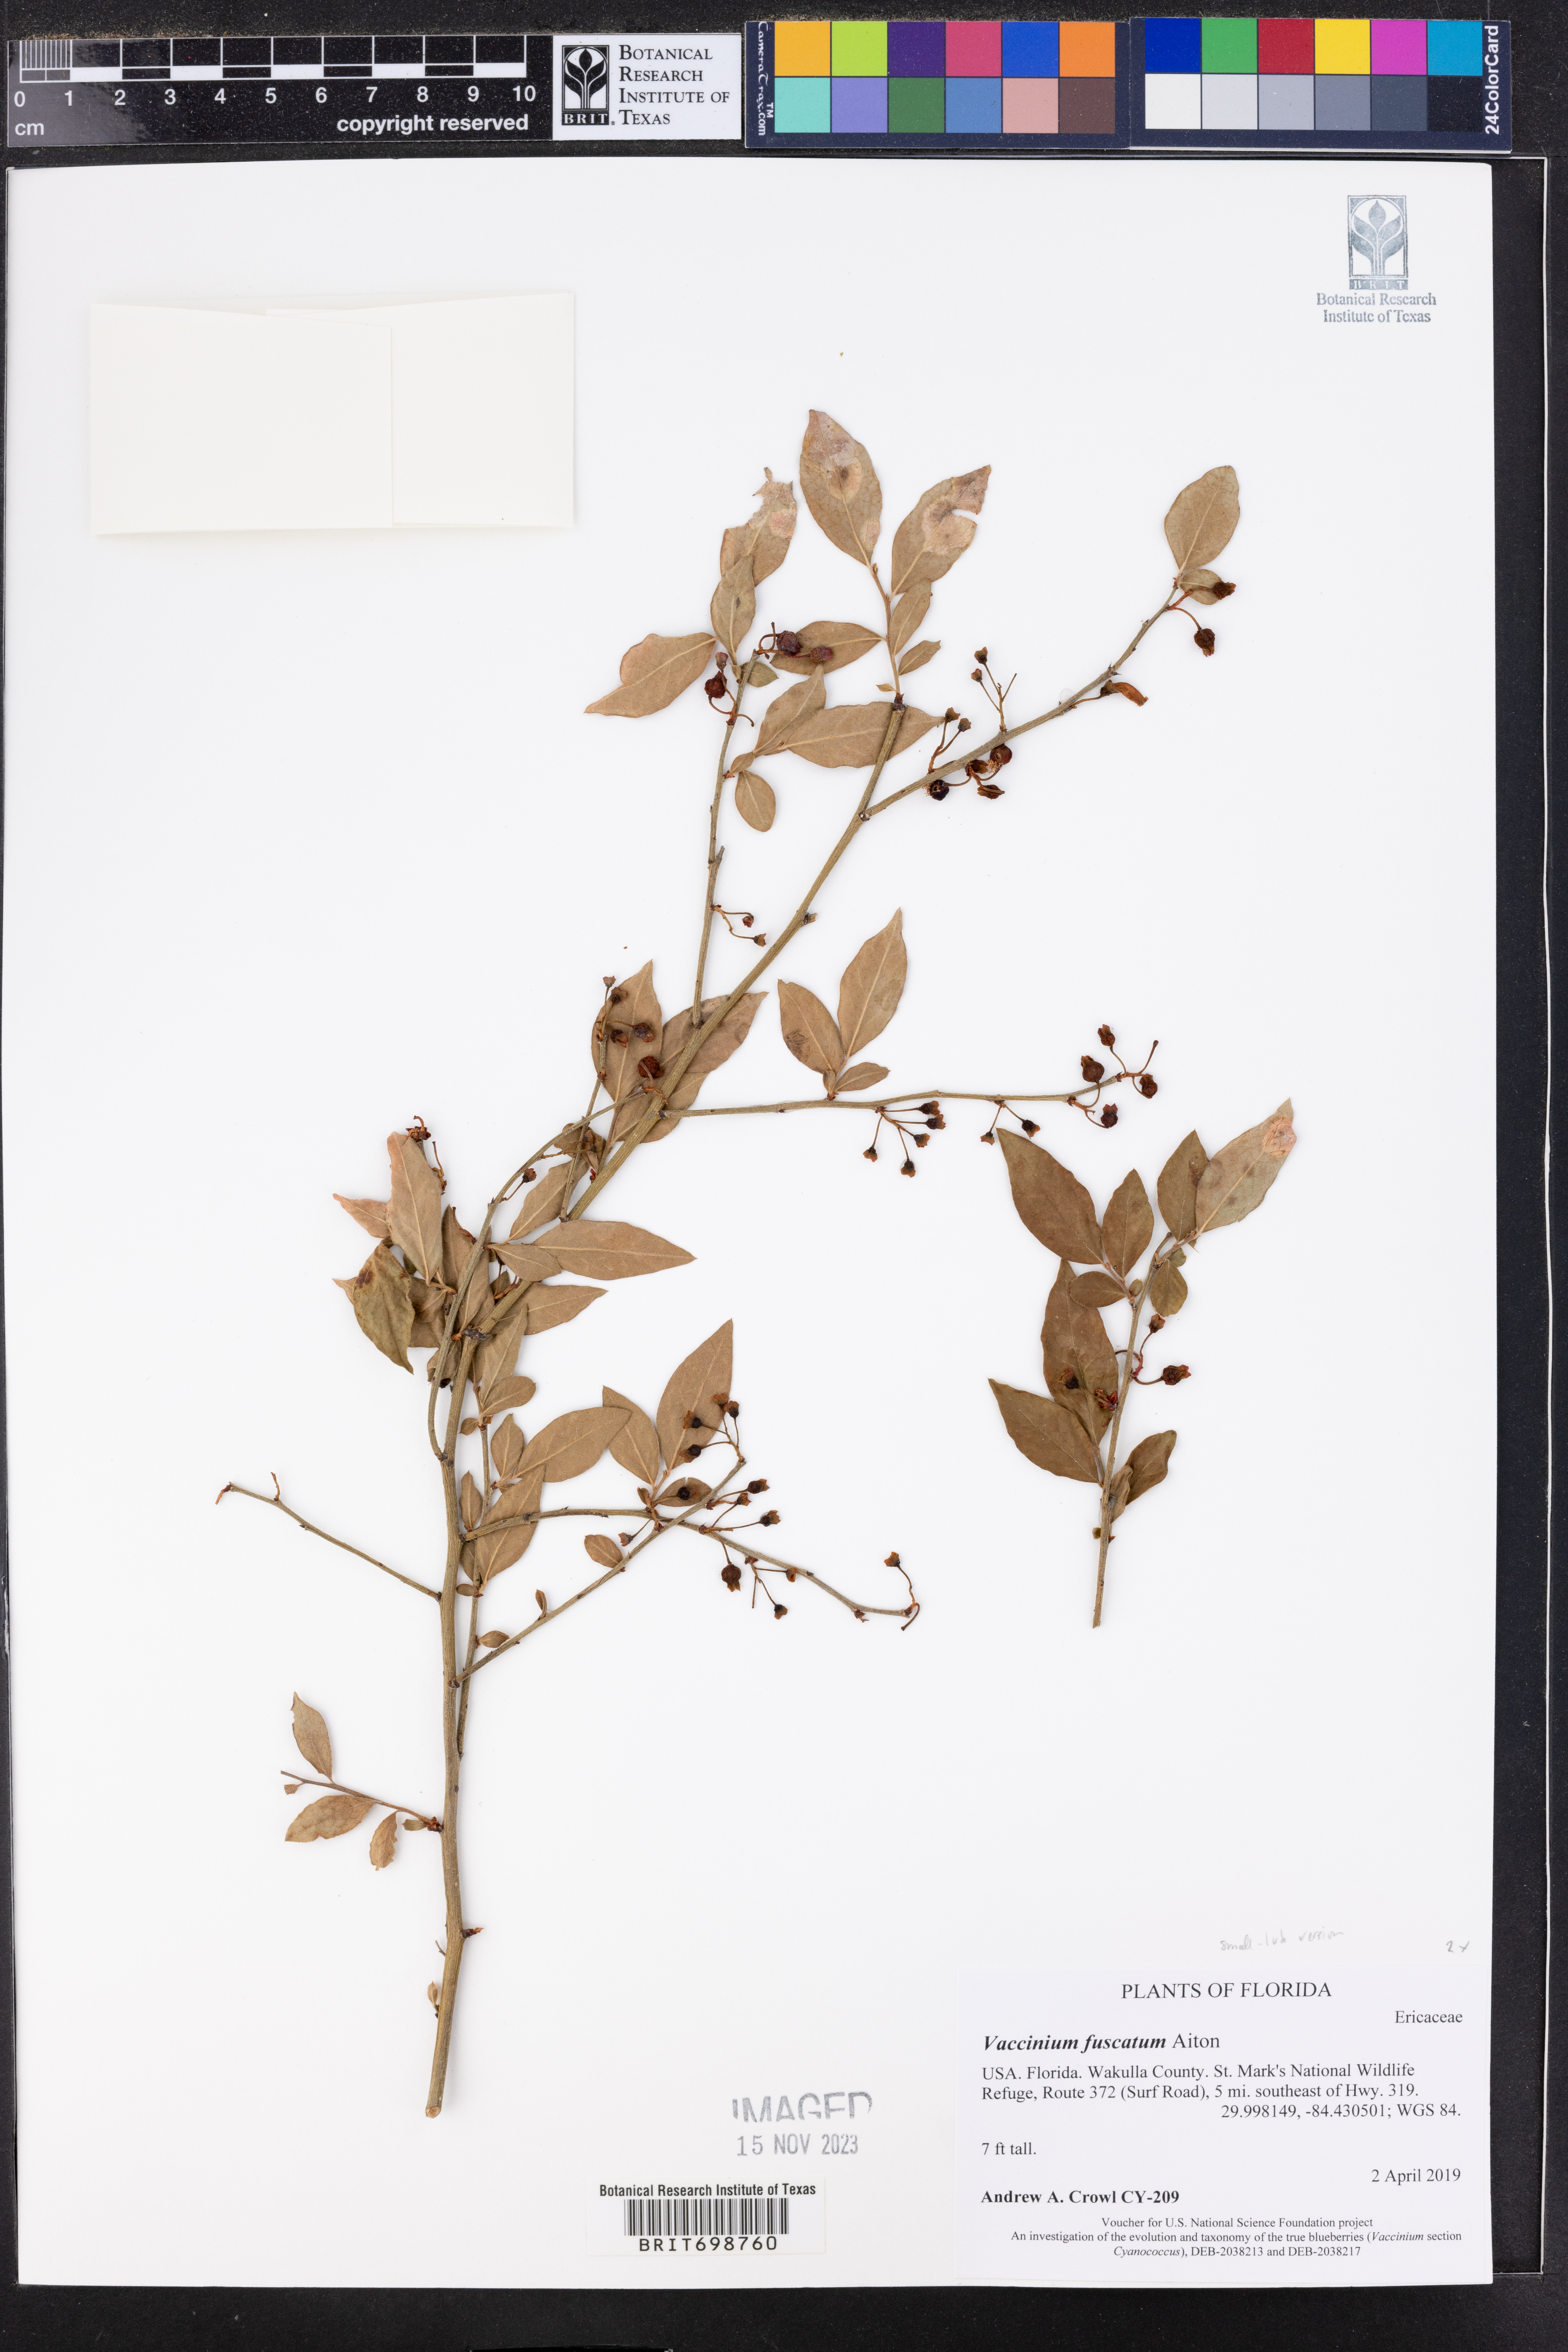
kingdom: Plantae
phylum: Tracheophyta
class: Magnoliopsida
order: Ericales
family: Ericaceae
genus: Vaccinium
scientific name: Vaccinium corymbosum
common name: Blueberry
